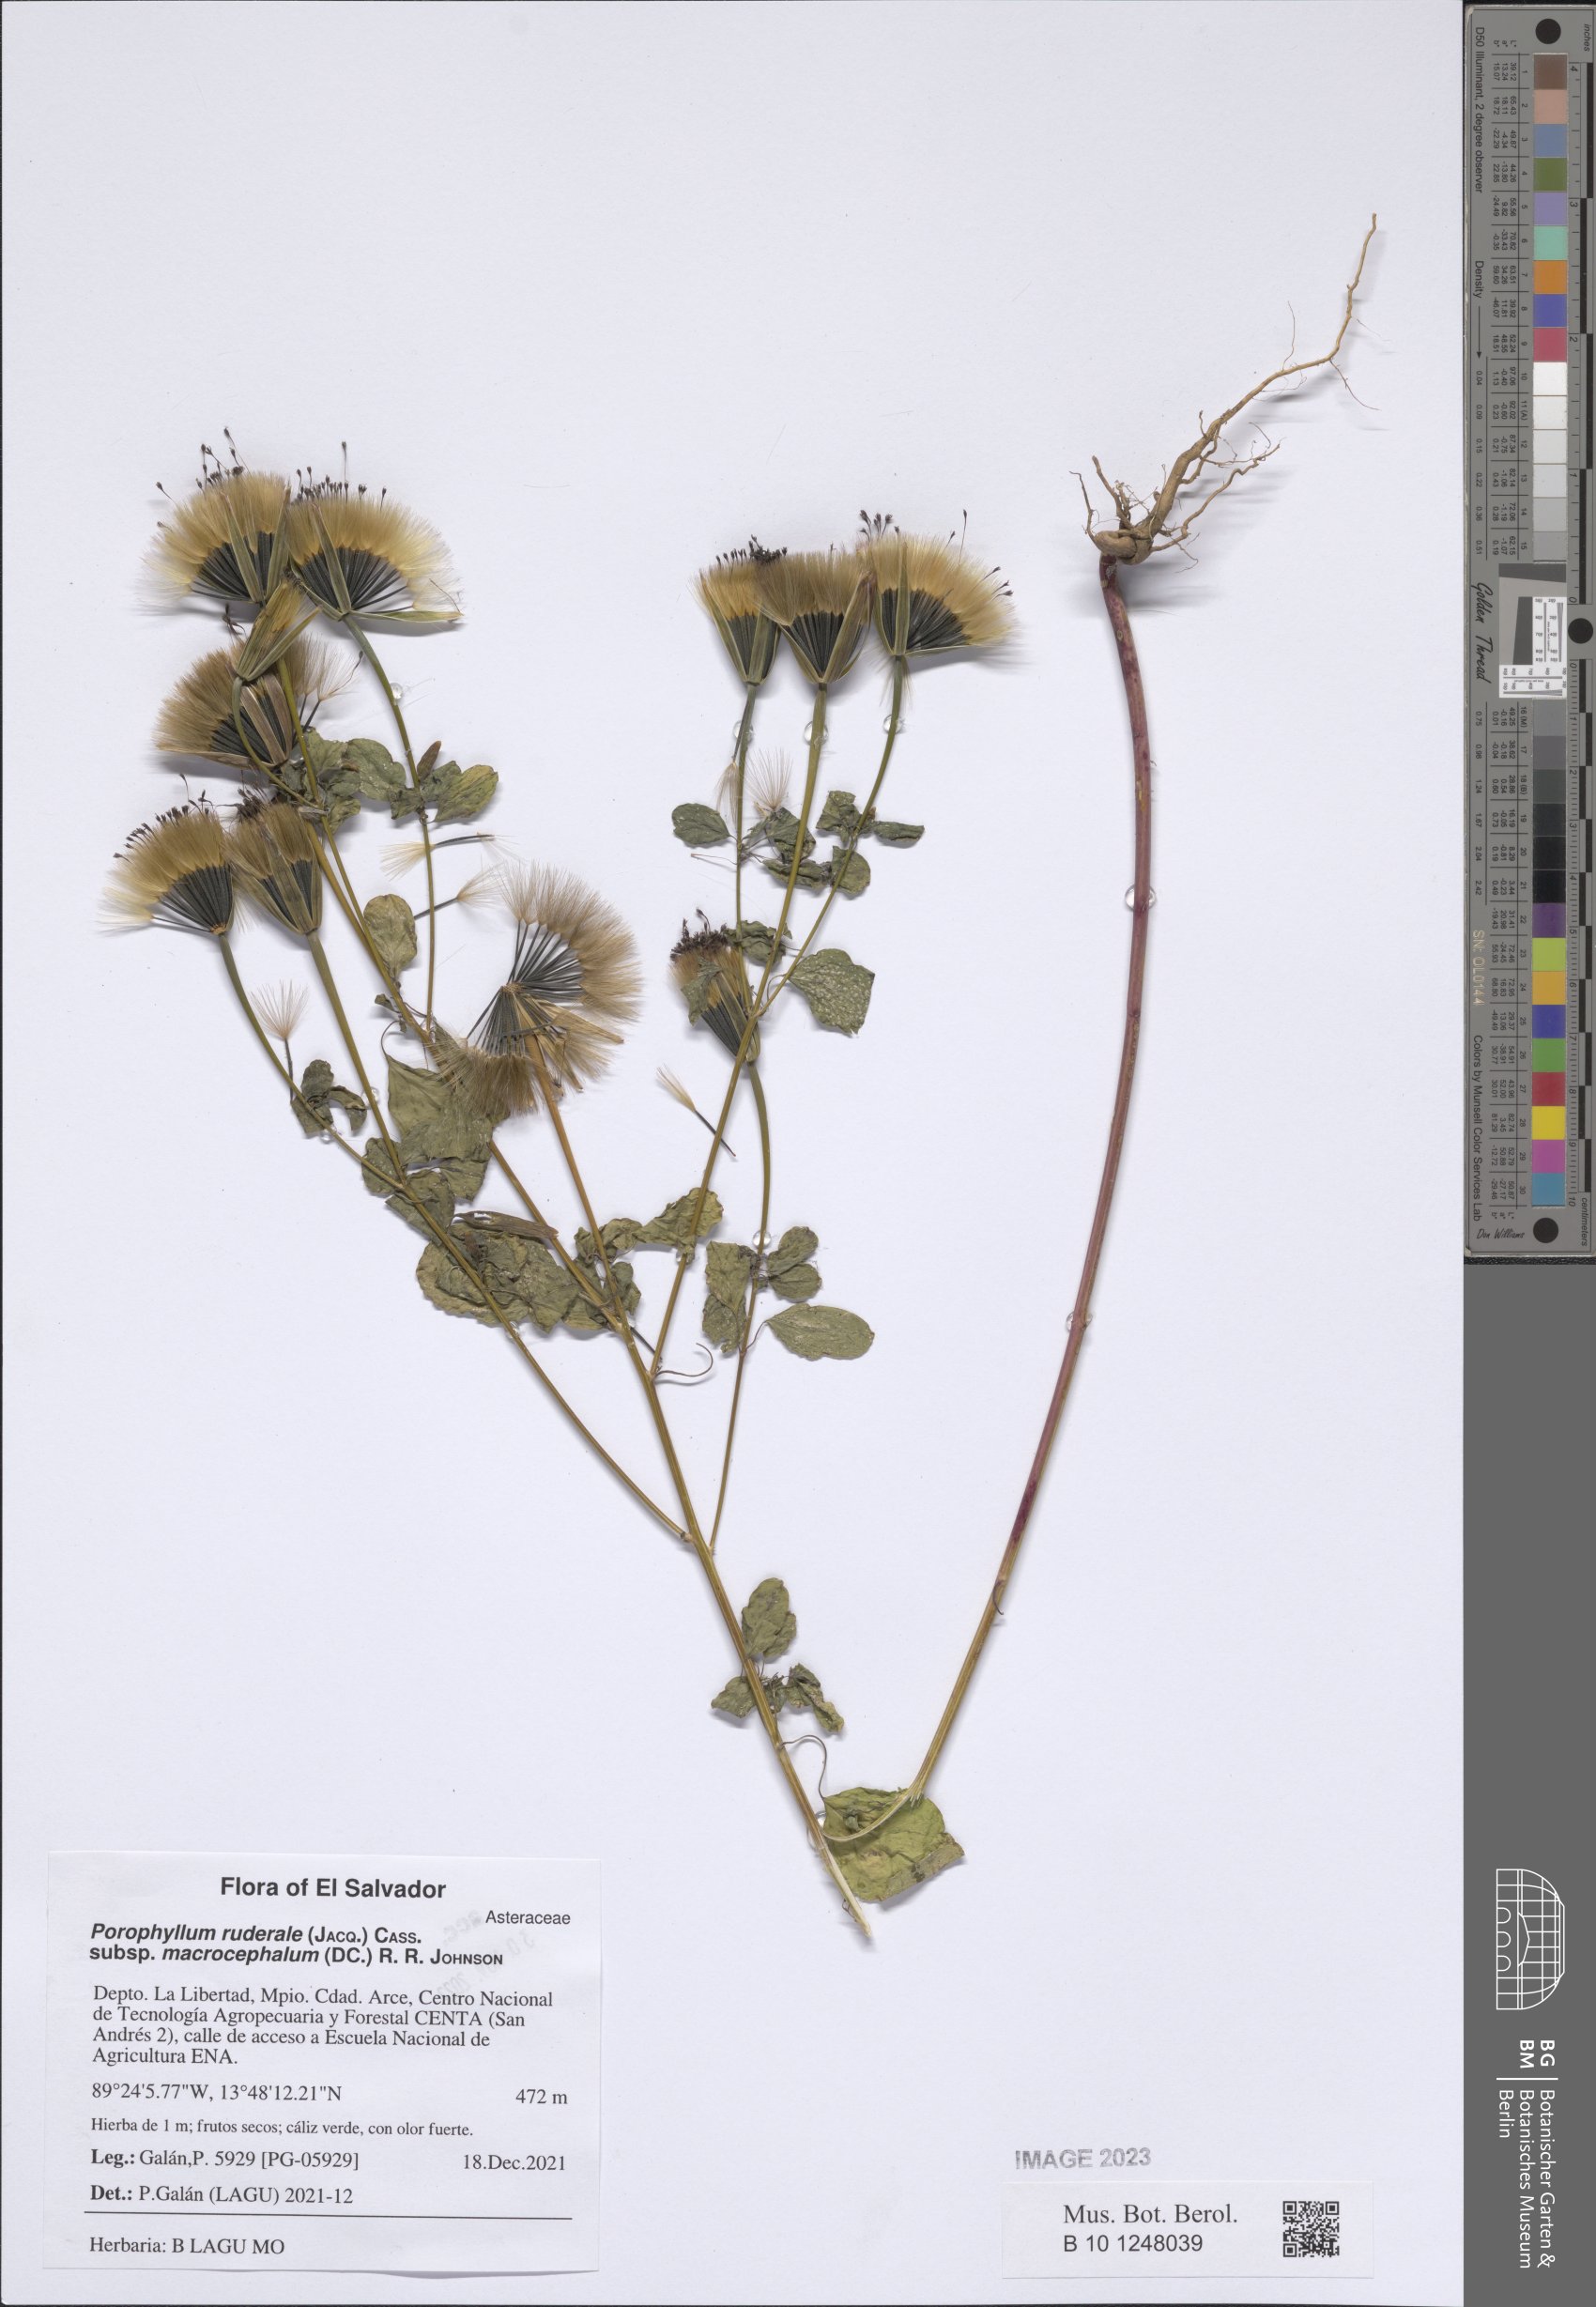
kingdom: Plantae
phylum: Tracheophyta
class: Magnoliopsida
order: Asterales
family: Asteraceae
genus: Porophyllum
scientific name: Porophyllum ruderale
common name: Yerba porosa
